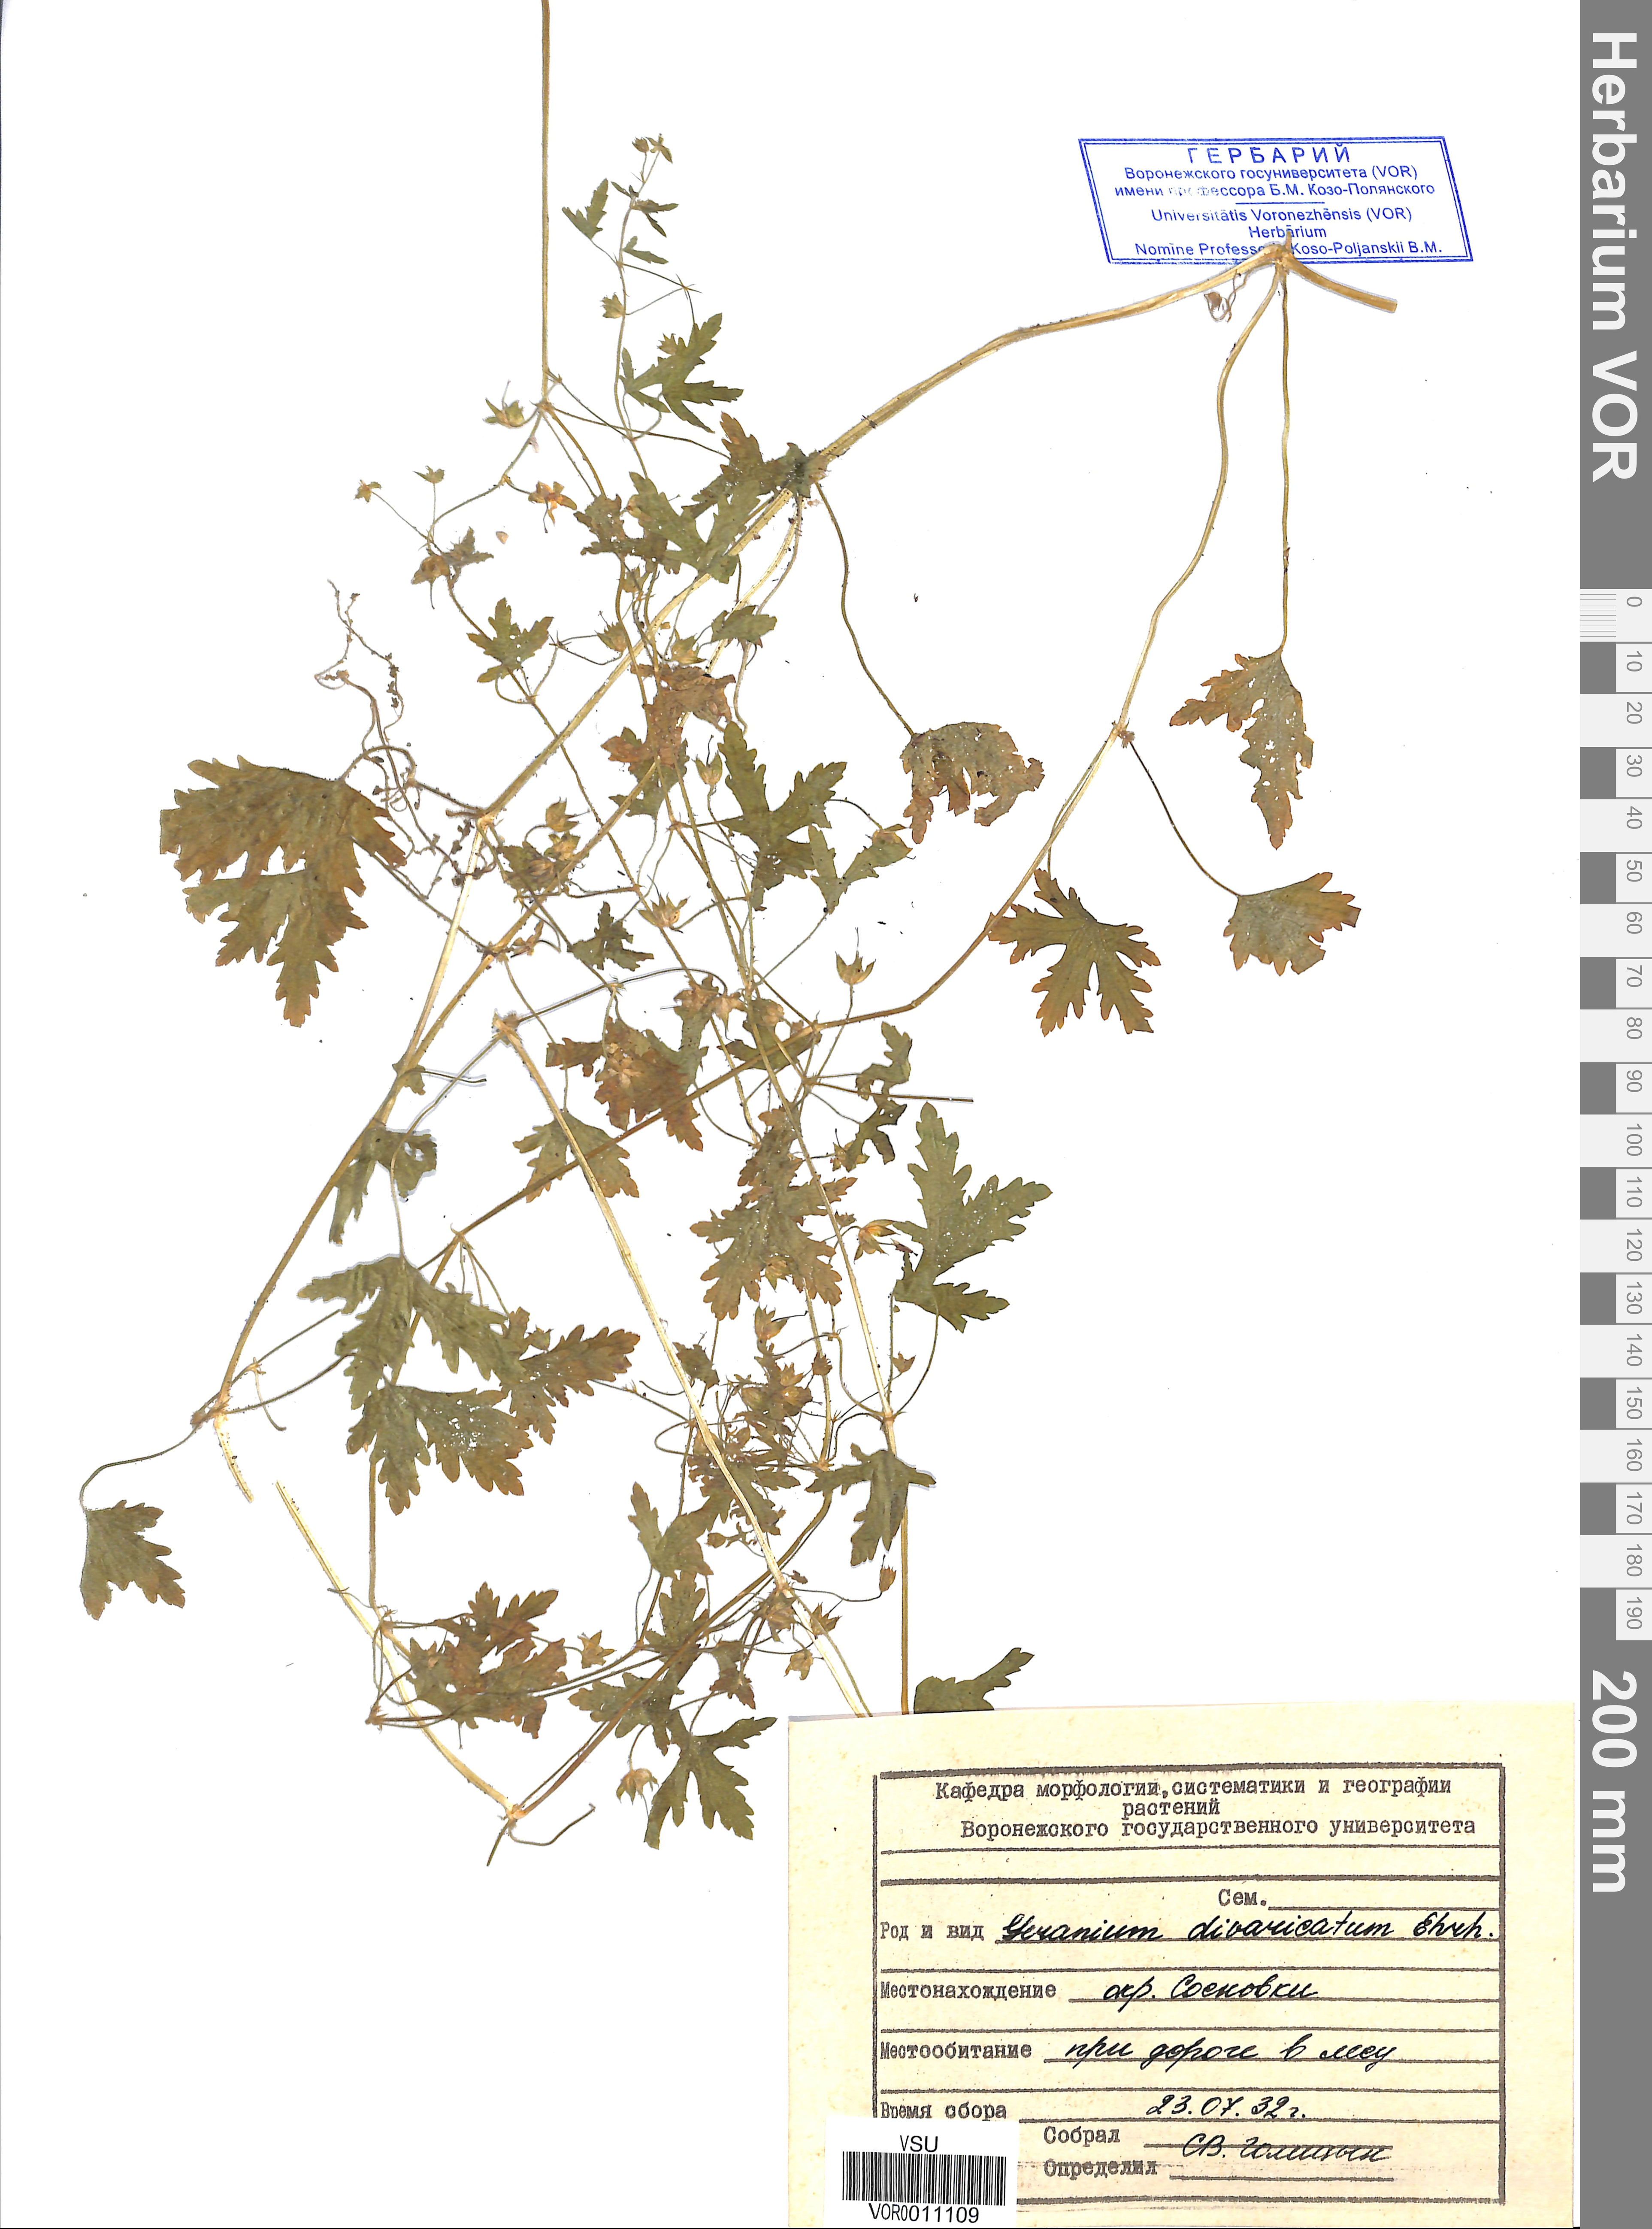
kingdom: Plantae
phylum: Tracheophyta
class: Magnoliopsida
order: Geraniales
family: Geraniaceae
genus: Geranium
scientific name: Geranium divaricatum
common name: Spreading crane's-bill
